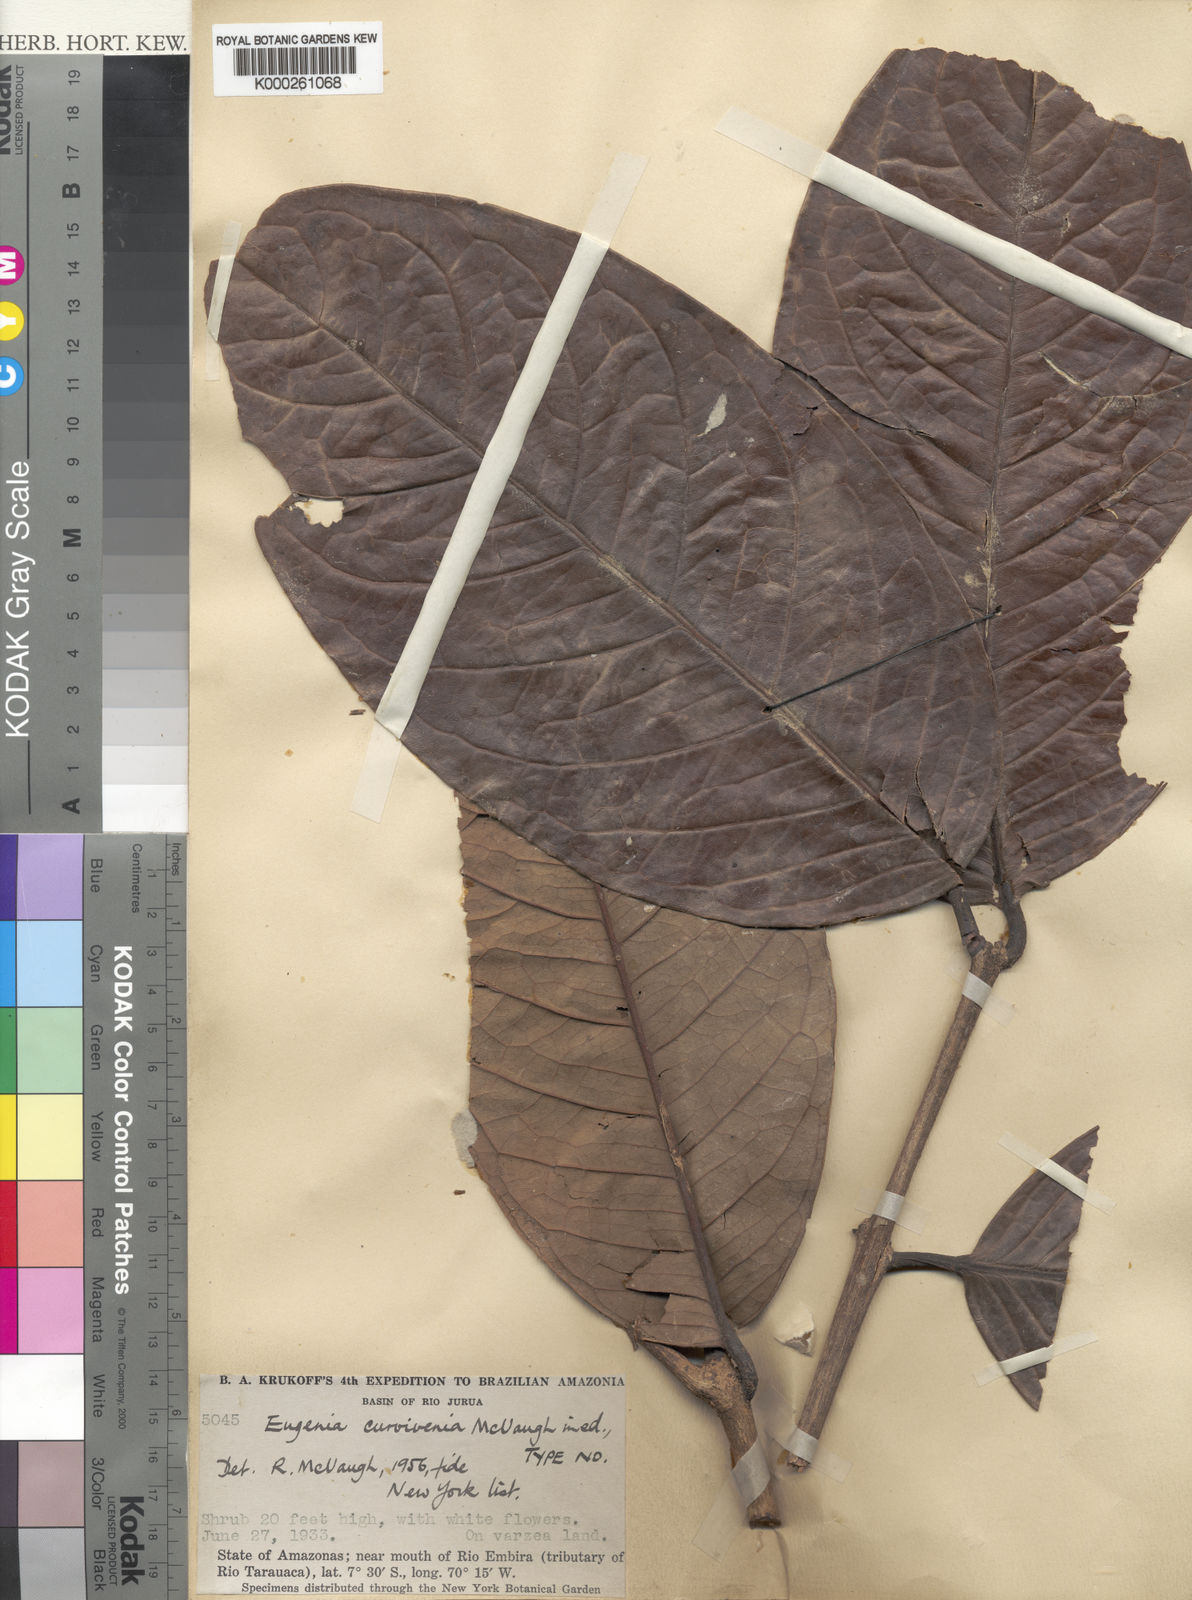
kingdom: Plantae
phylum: Tracheophyta
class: Magnoliopsida
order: Myrtales
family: Myrtaceae
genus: Eugenia
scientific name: Eugenia curvivenia
